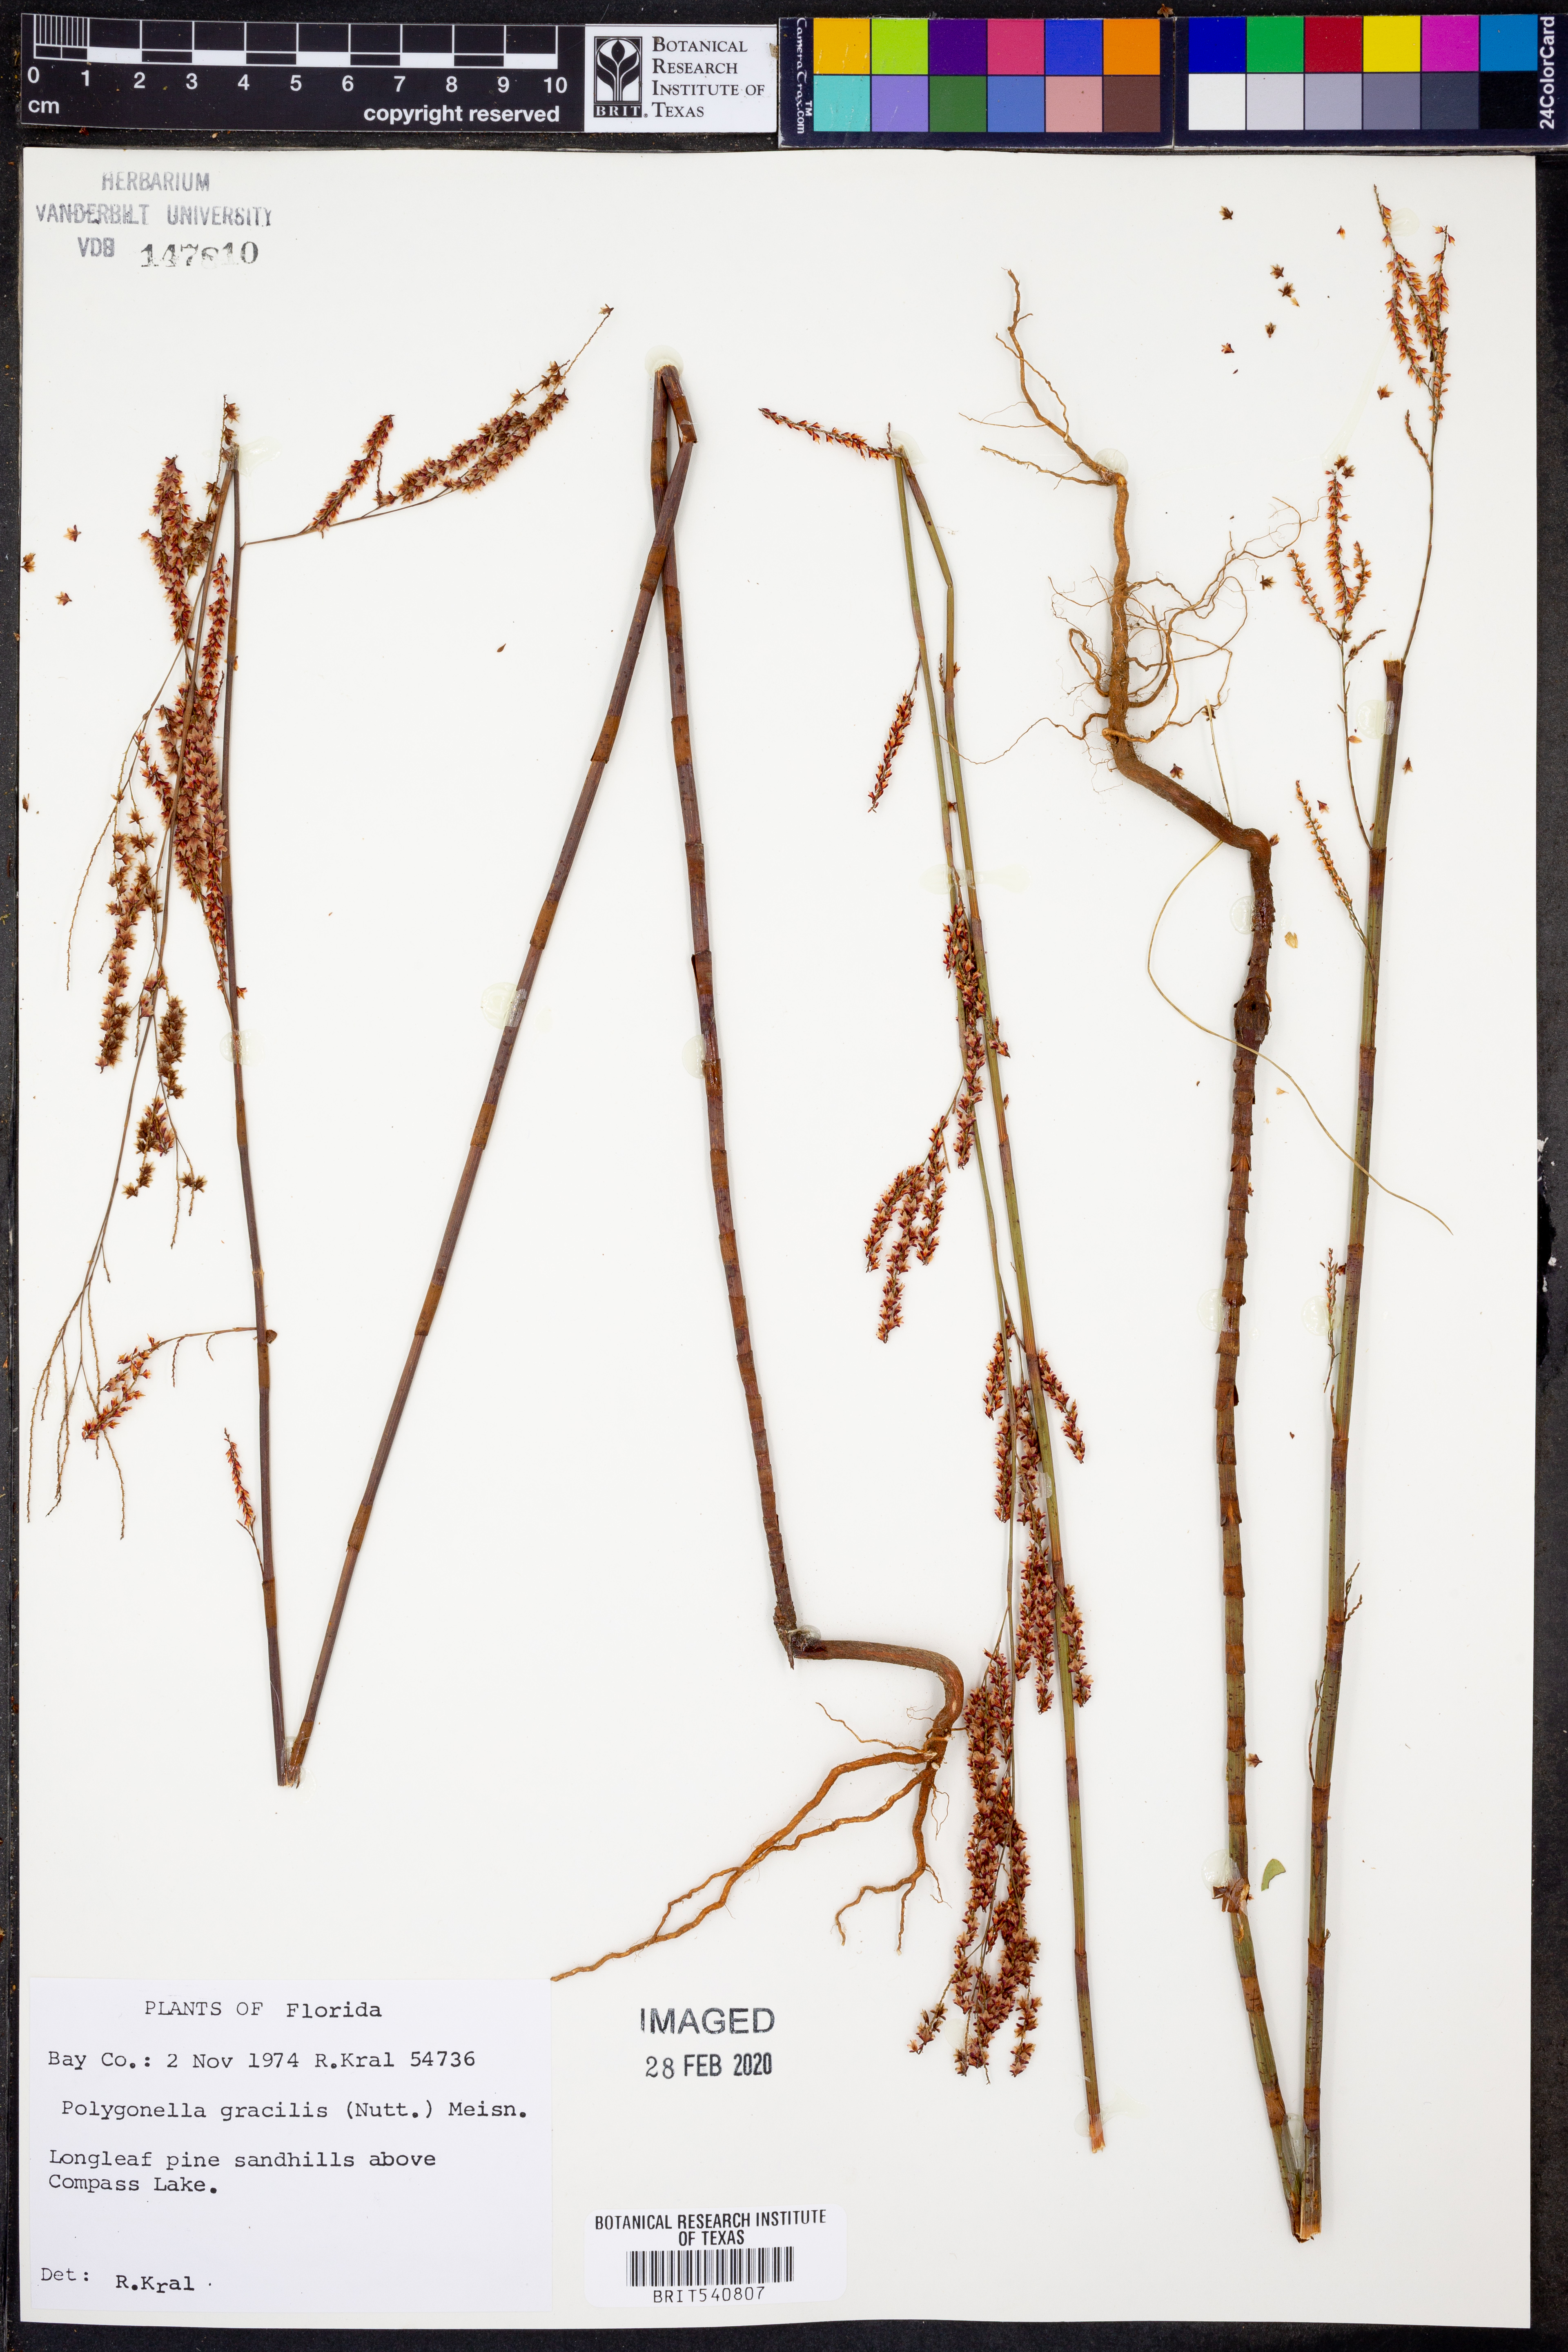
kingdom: Plantae
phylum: Tracheophyta
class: Magnoliopsida
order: Caryophyllales
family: Polygonaceae
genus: Polygonella
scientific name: Polygonella gracilis
